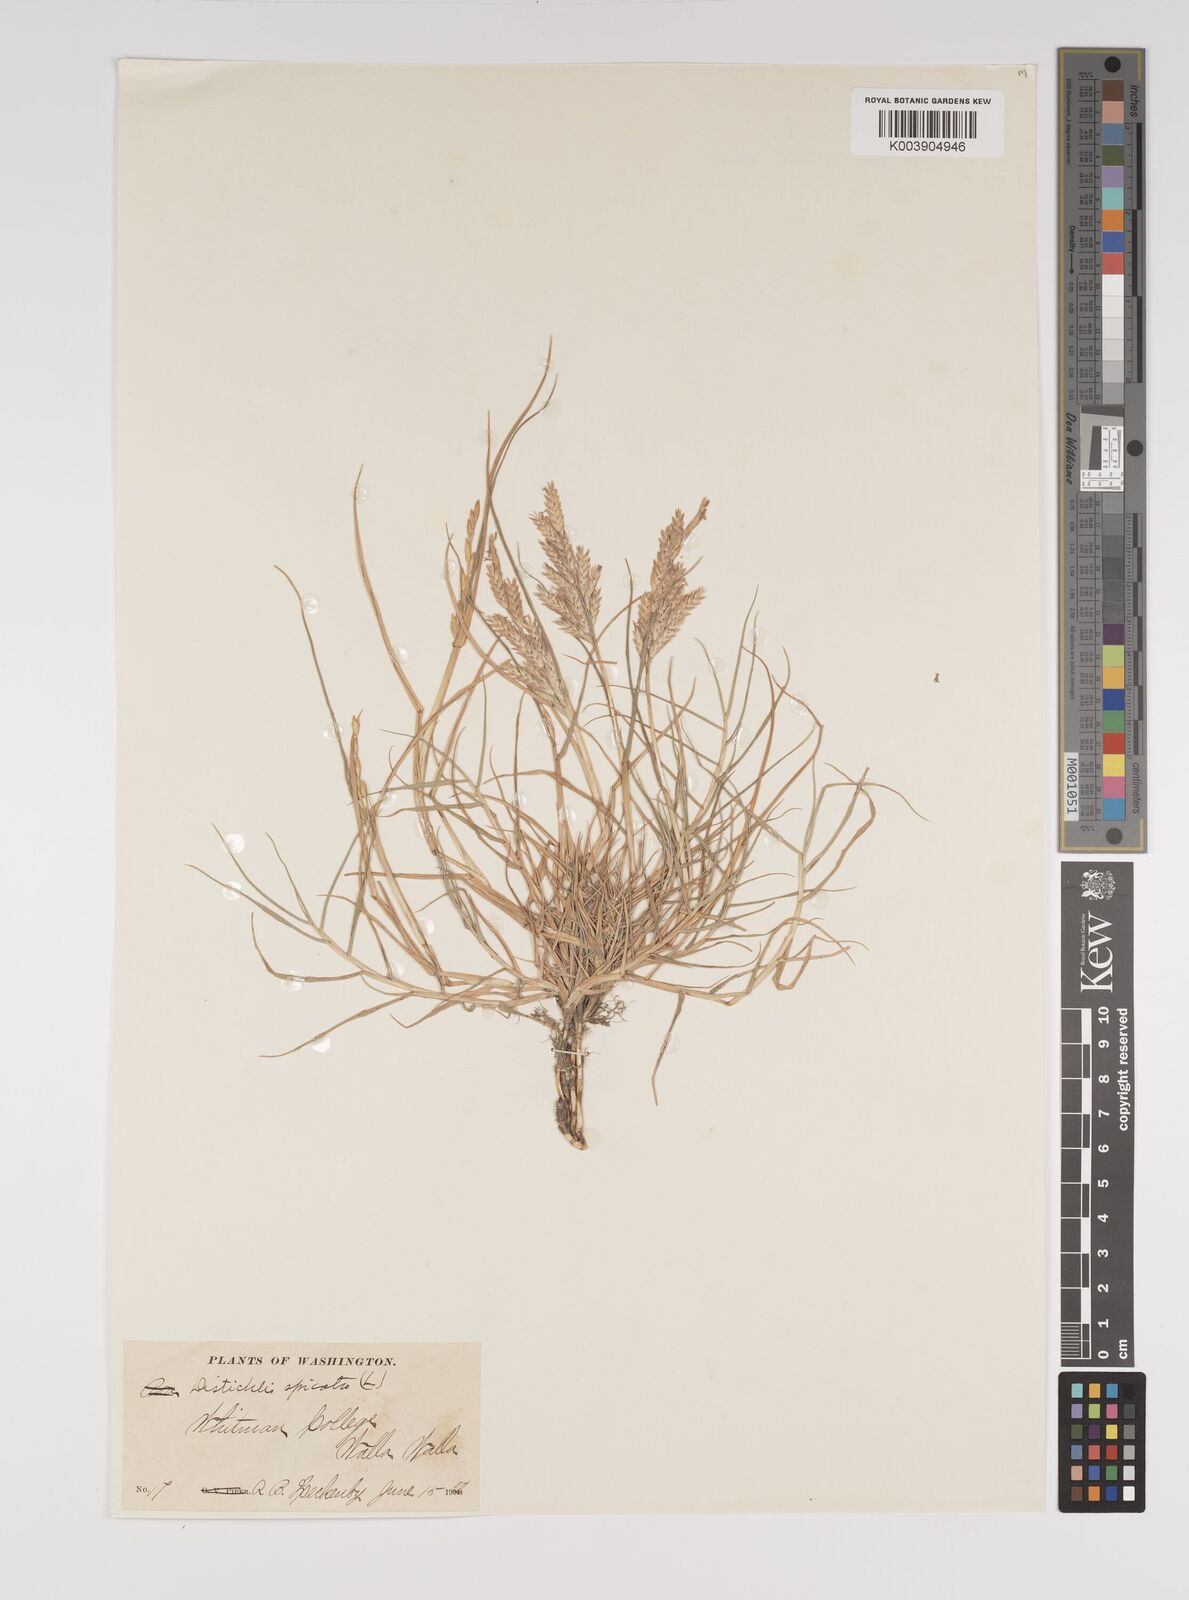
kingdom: Plantae
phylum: Tracheophyta
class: Liliopsida
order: Poales
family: Poaceae
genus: Distichlis
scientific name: Distichlis spicata
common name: Saltgrass
